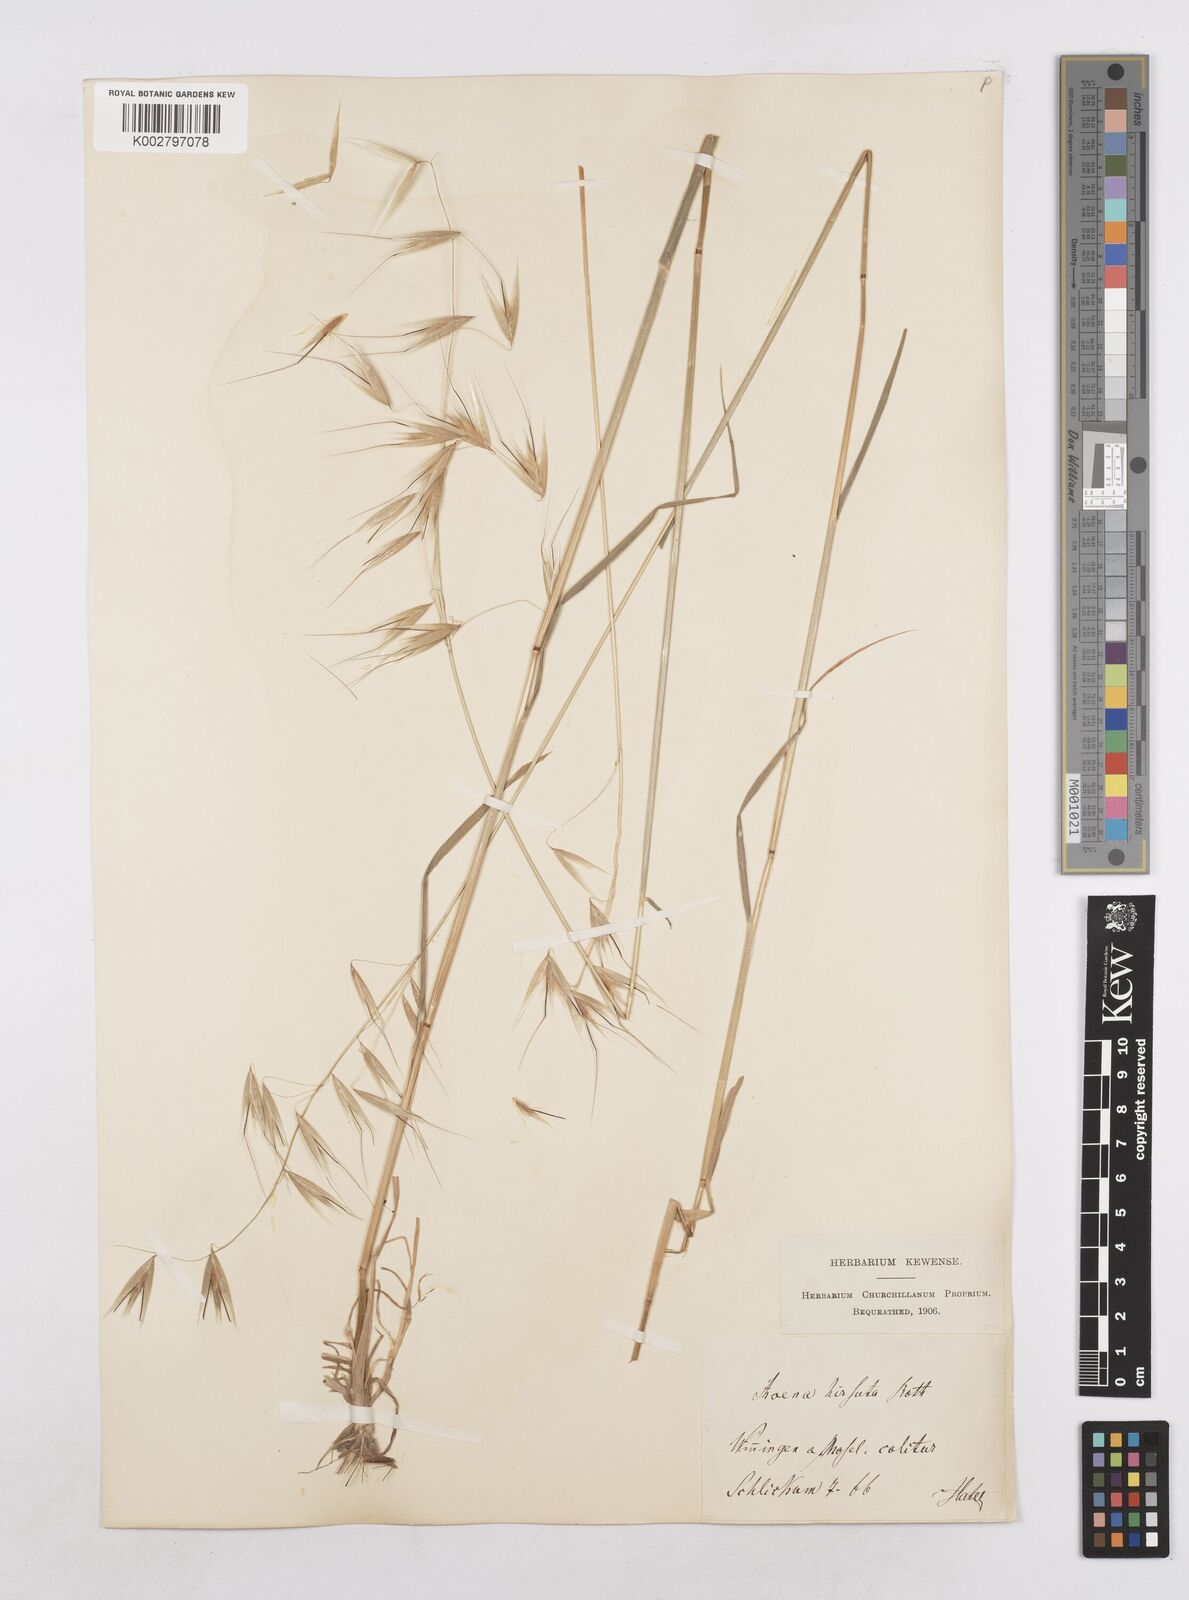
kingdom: Plantae
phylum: Tracheophyta
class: Liliopsida
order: Poales
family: Poaceae
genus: Avena
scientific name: Avena
